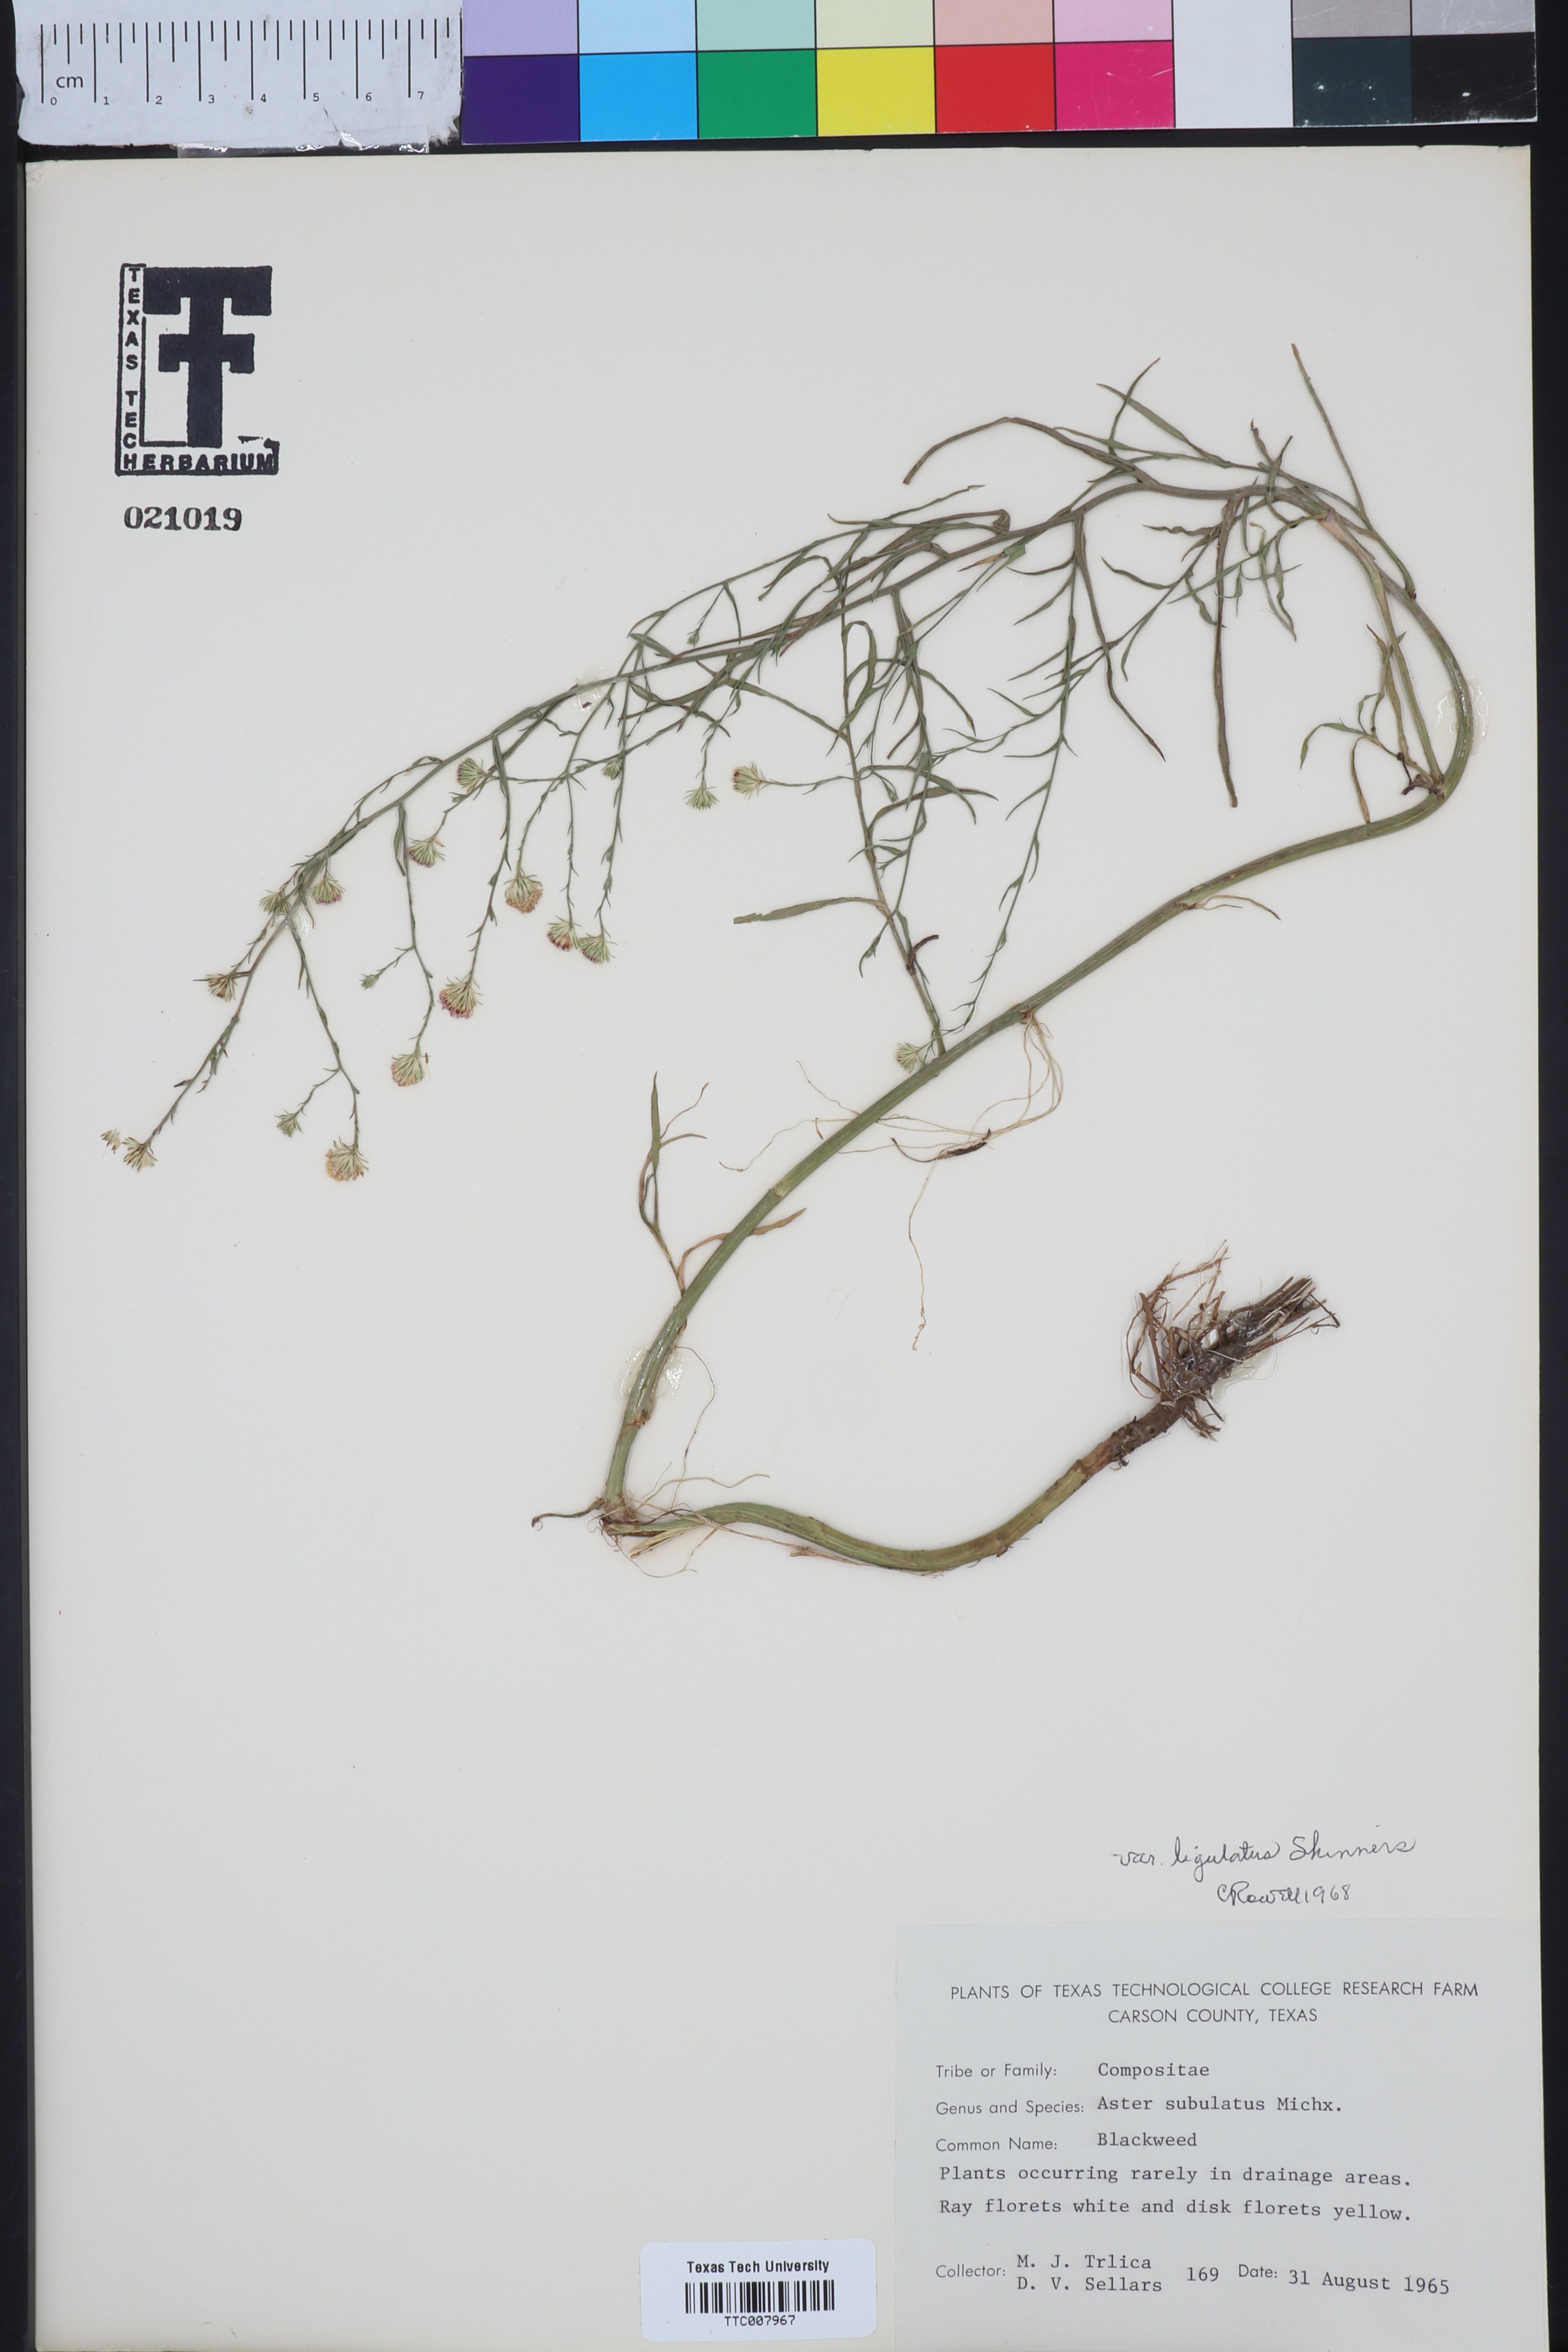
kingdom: Plantae
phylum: Tracheophyta
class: Magnoliopsida
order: Asterales
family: Asteraceae
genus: Symphyotrichum
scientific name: Symphyotrichum divaricatum
